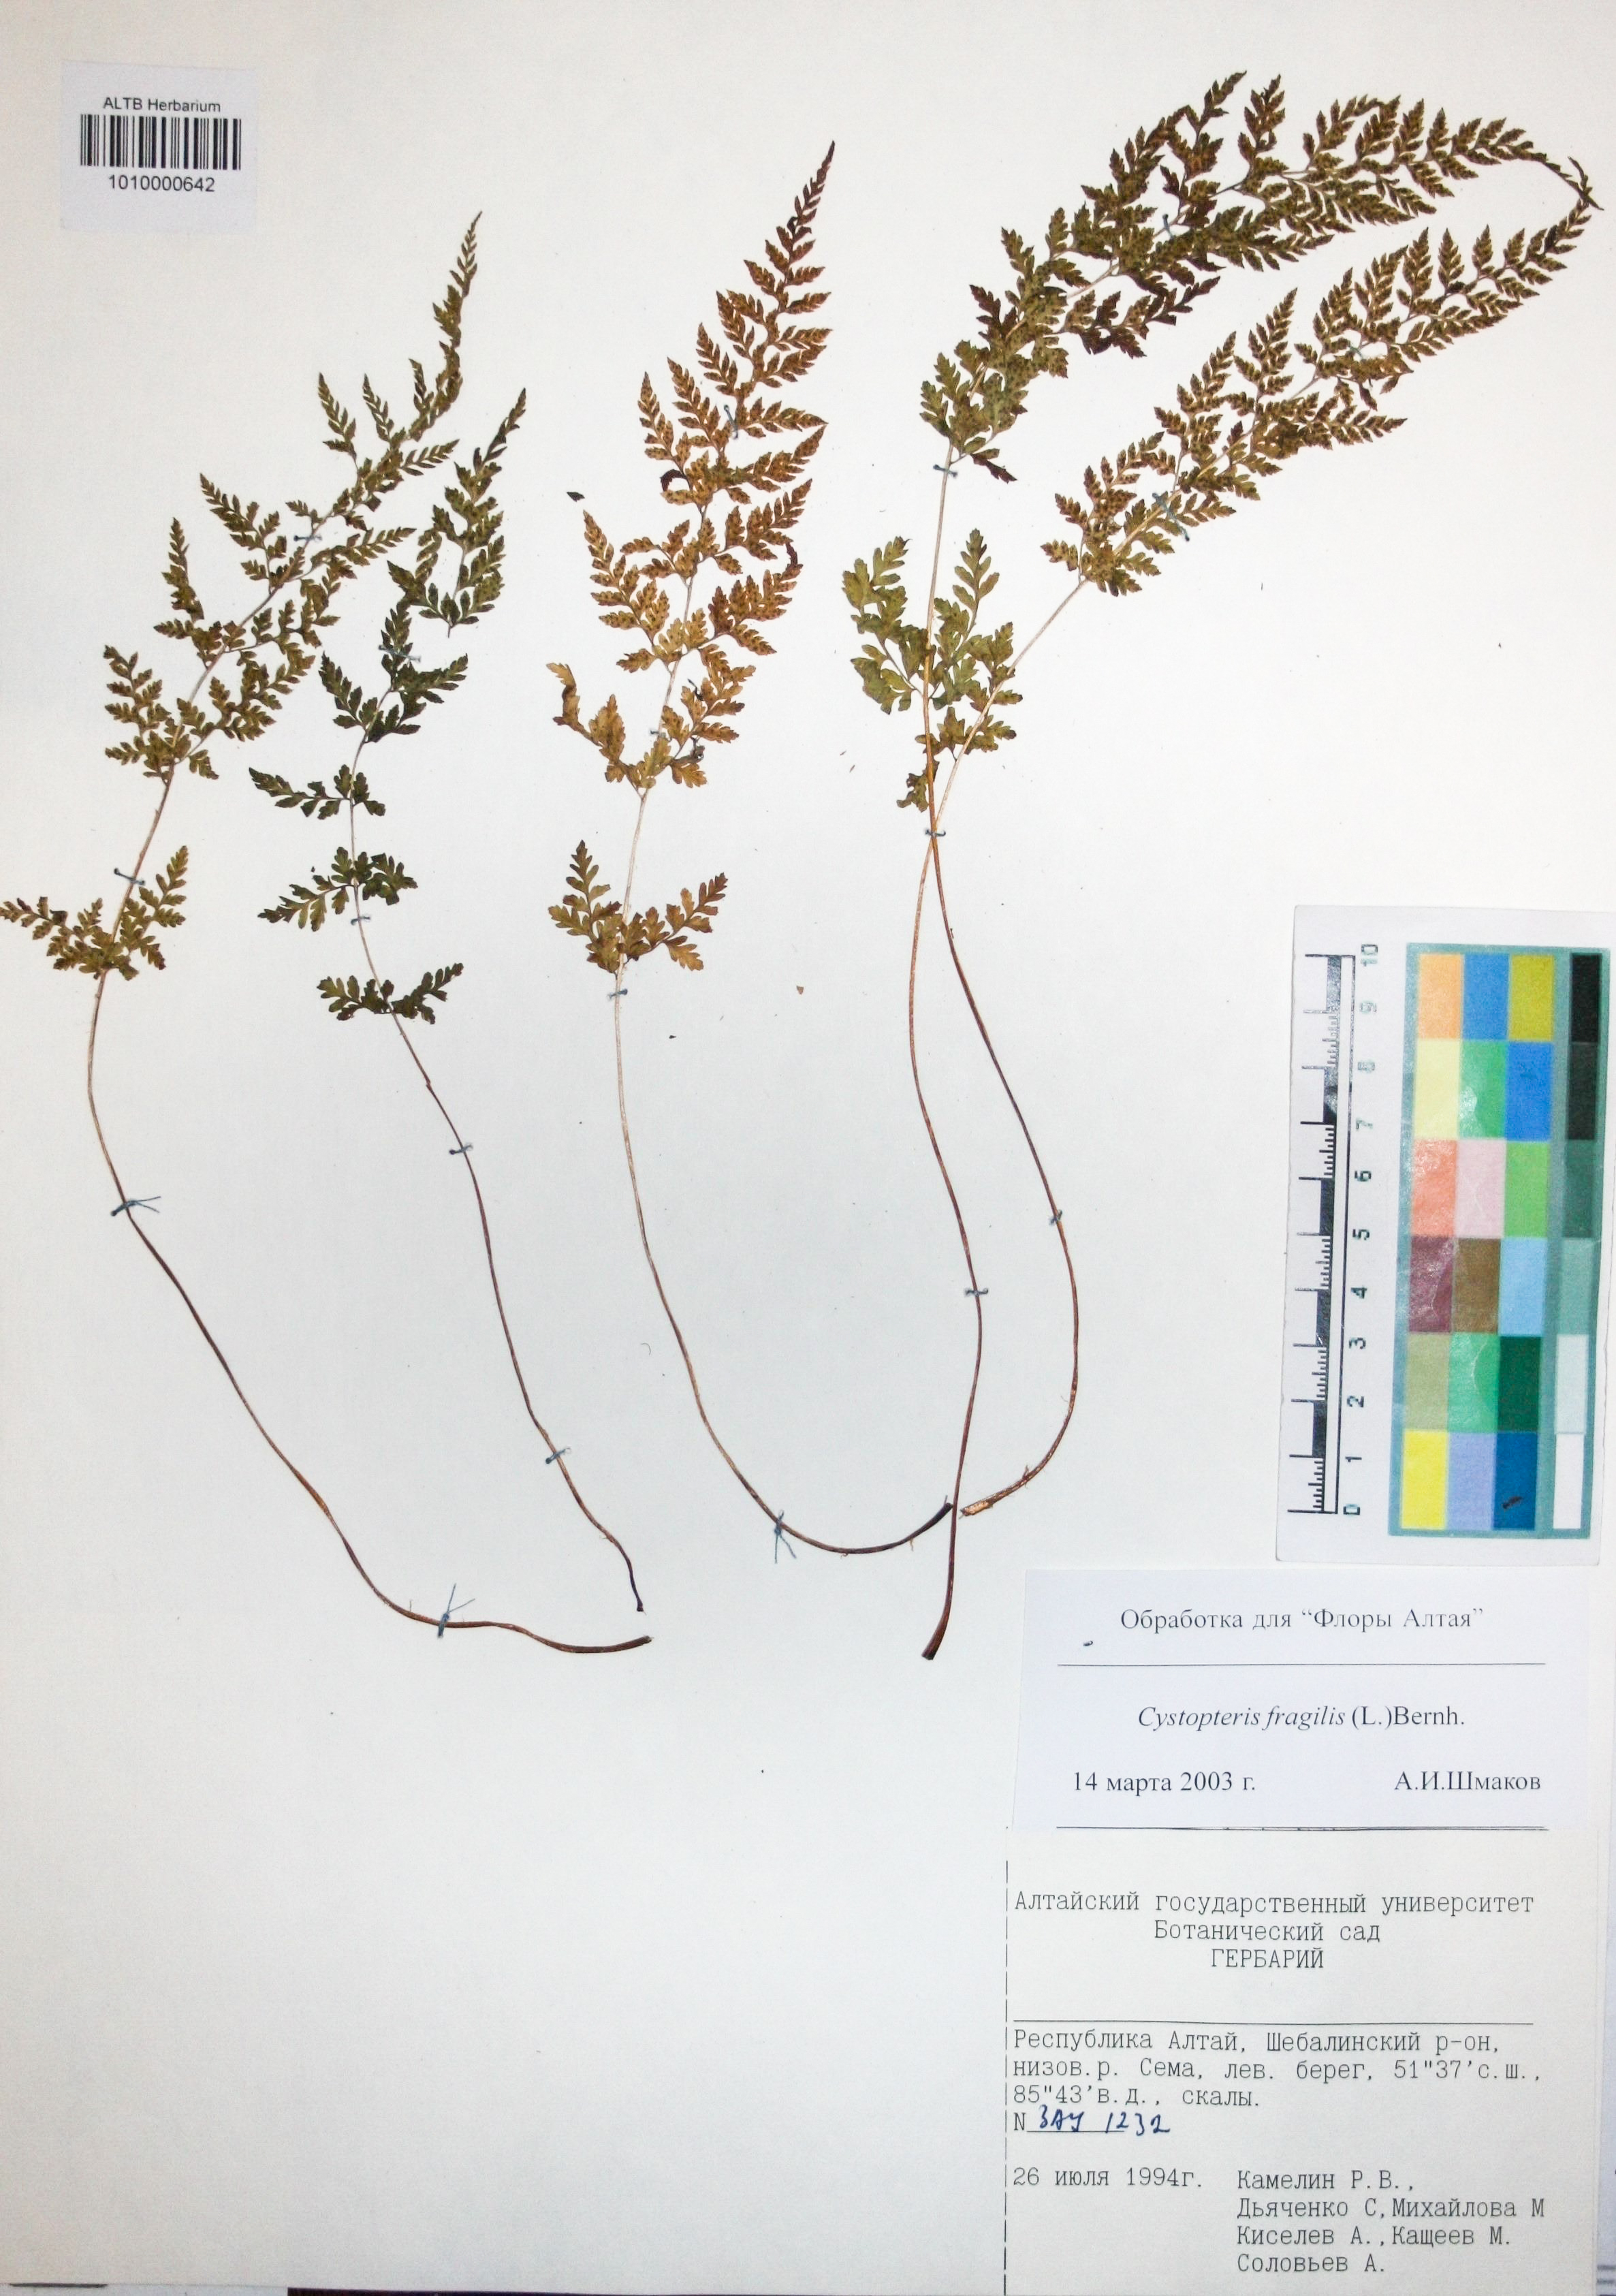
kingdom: Plantae
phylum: Tracheophyta
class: Polypodiopsida
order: Polypodiales
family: Cystopteridaceae
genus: Cystopteris
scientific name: Cystopteris fragilis
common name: Brittle bladder fern
